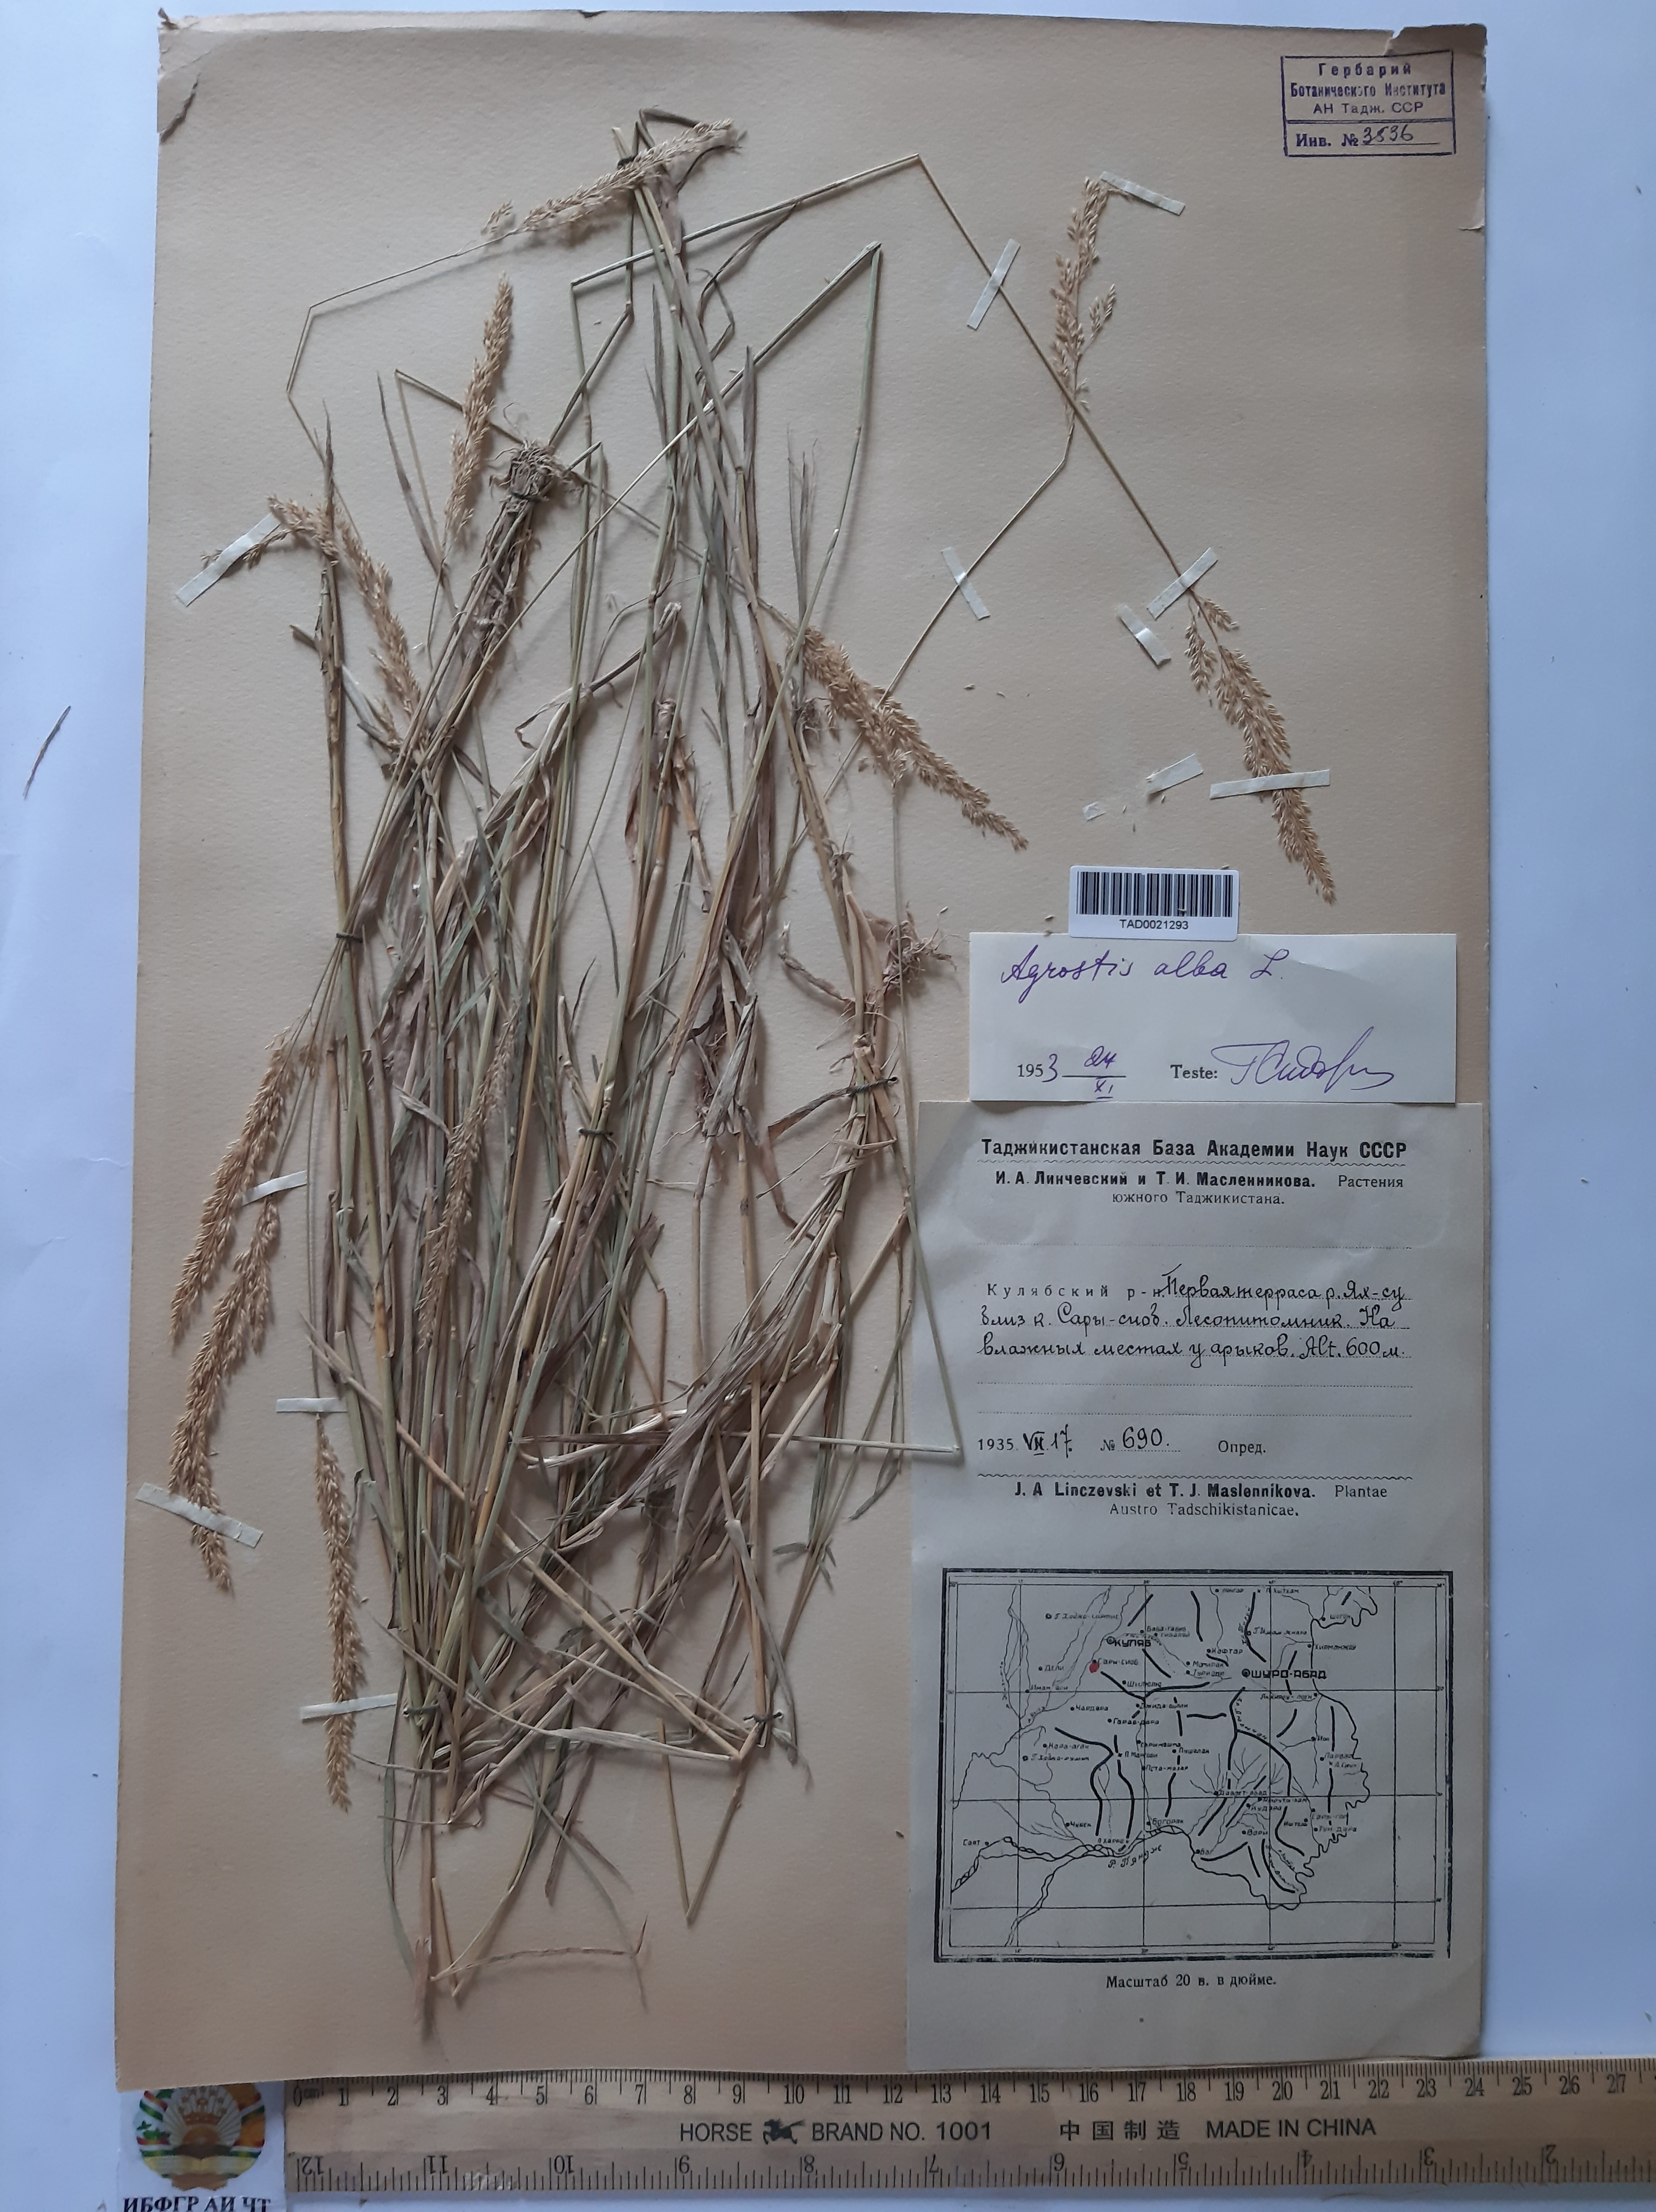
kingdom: Plantae
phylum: Tracheophyta
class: Liliopsida
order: Poales
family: Poaceae
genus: Poa
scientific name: Poa nemoralis
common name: Wood bluegrass
